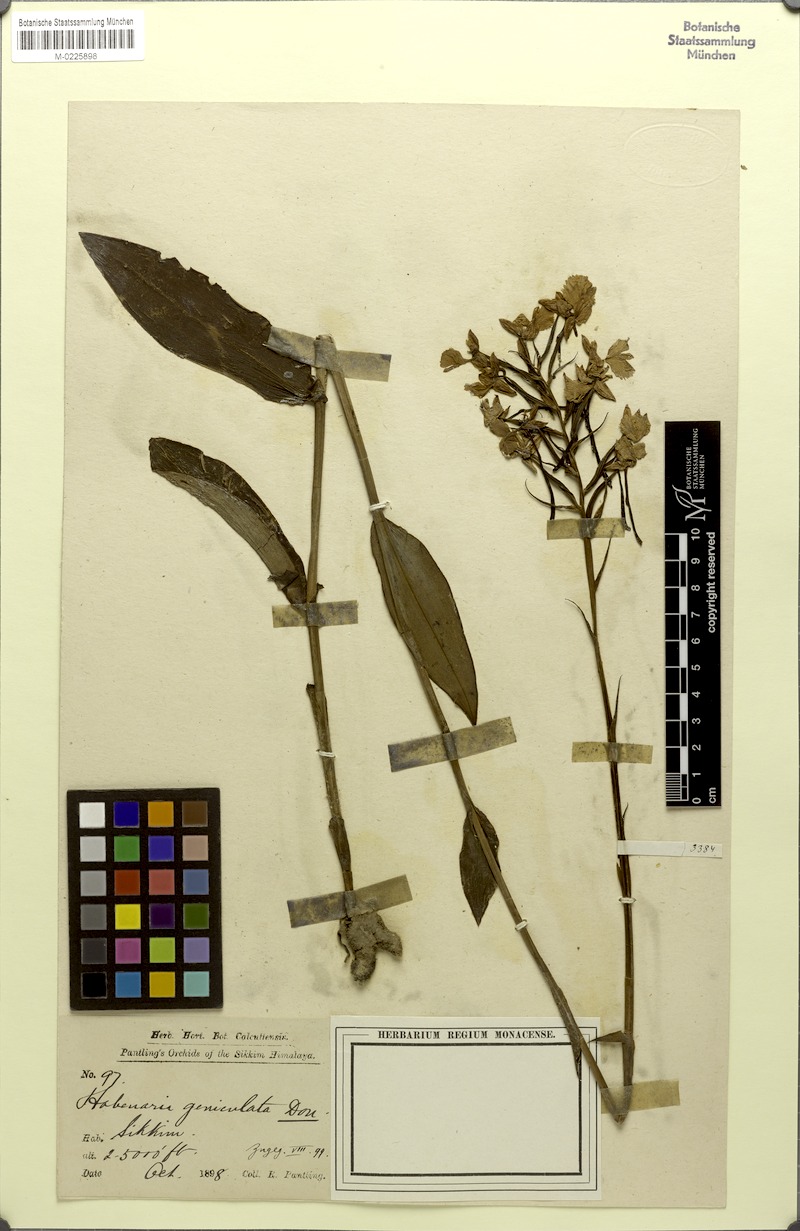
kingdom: Plantae
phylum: Tracheophyta
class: Liliopsida
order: Asparagales
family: Orchidaceae
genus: Habenaria
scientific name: Habenaria dentata
